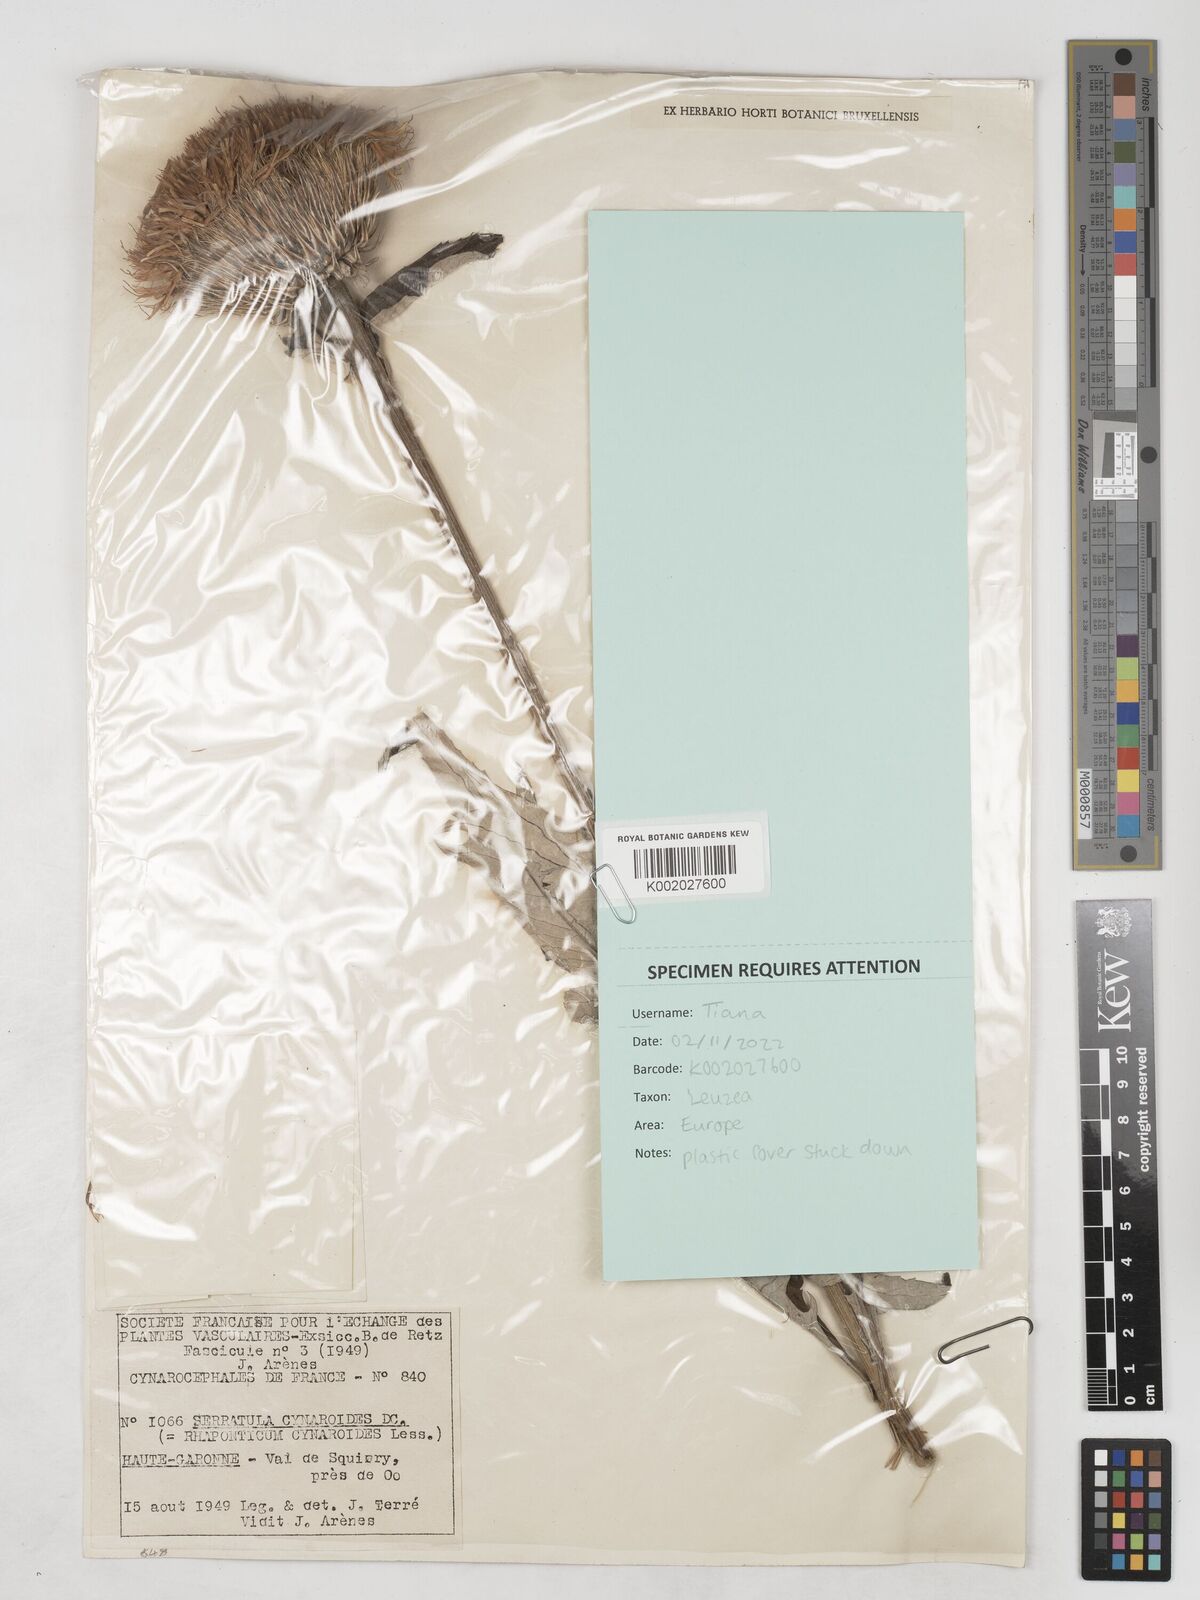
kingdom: Plantae
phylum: Tracheophyta
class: Magnoliopsida
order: Asterales
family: Asteraceae
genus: Leuzea
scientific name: Leuzea centauroides
